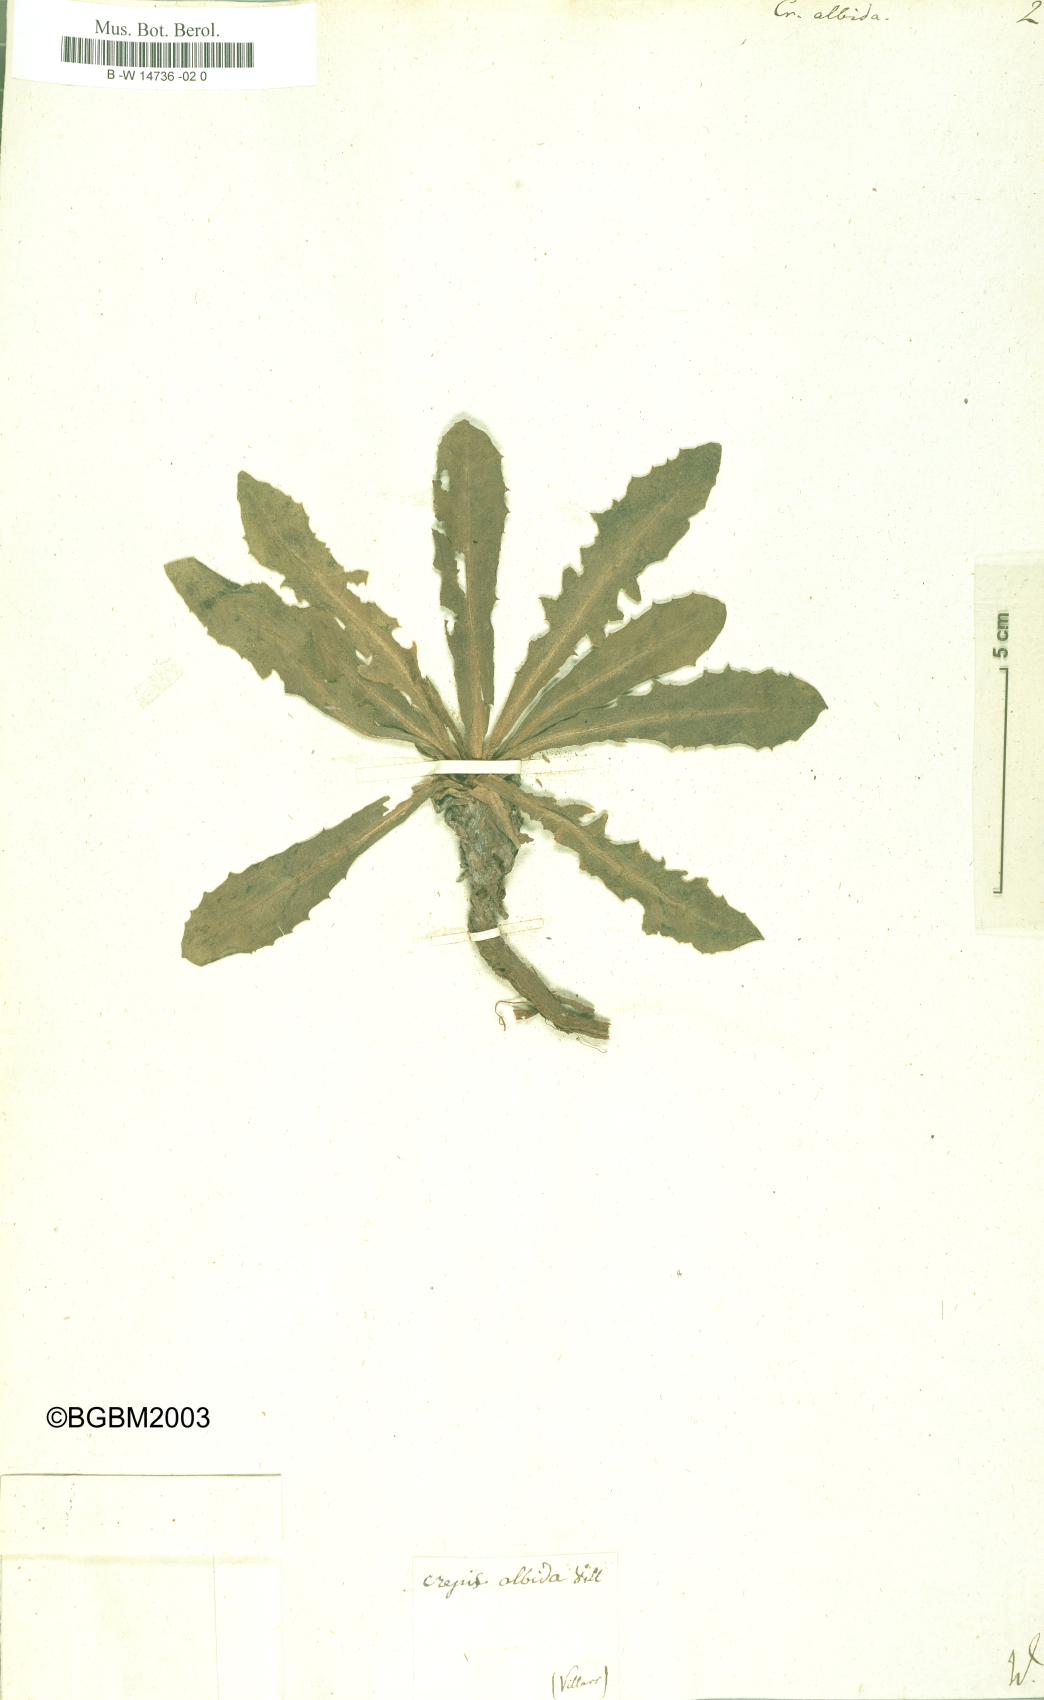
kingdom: Plantae
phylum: Tracheophyta
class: Magnoliopsida
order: Asterales
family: Asteraceae
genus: Crepis
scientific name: Crepis albida
